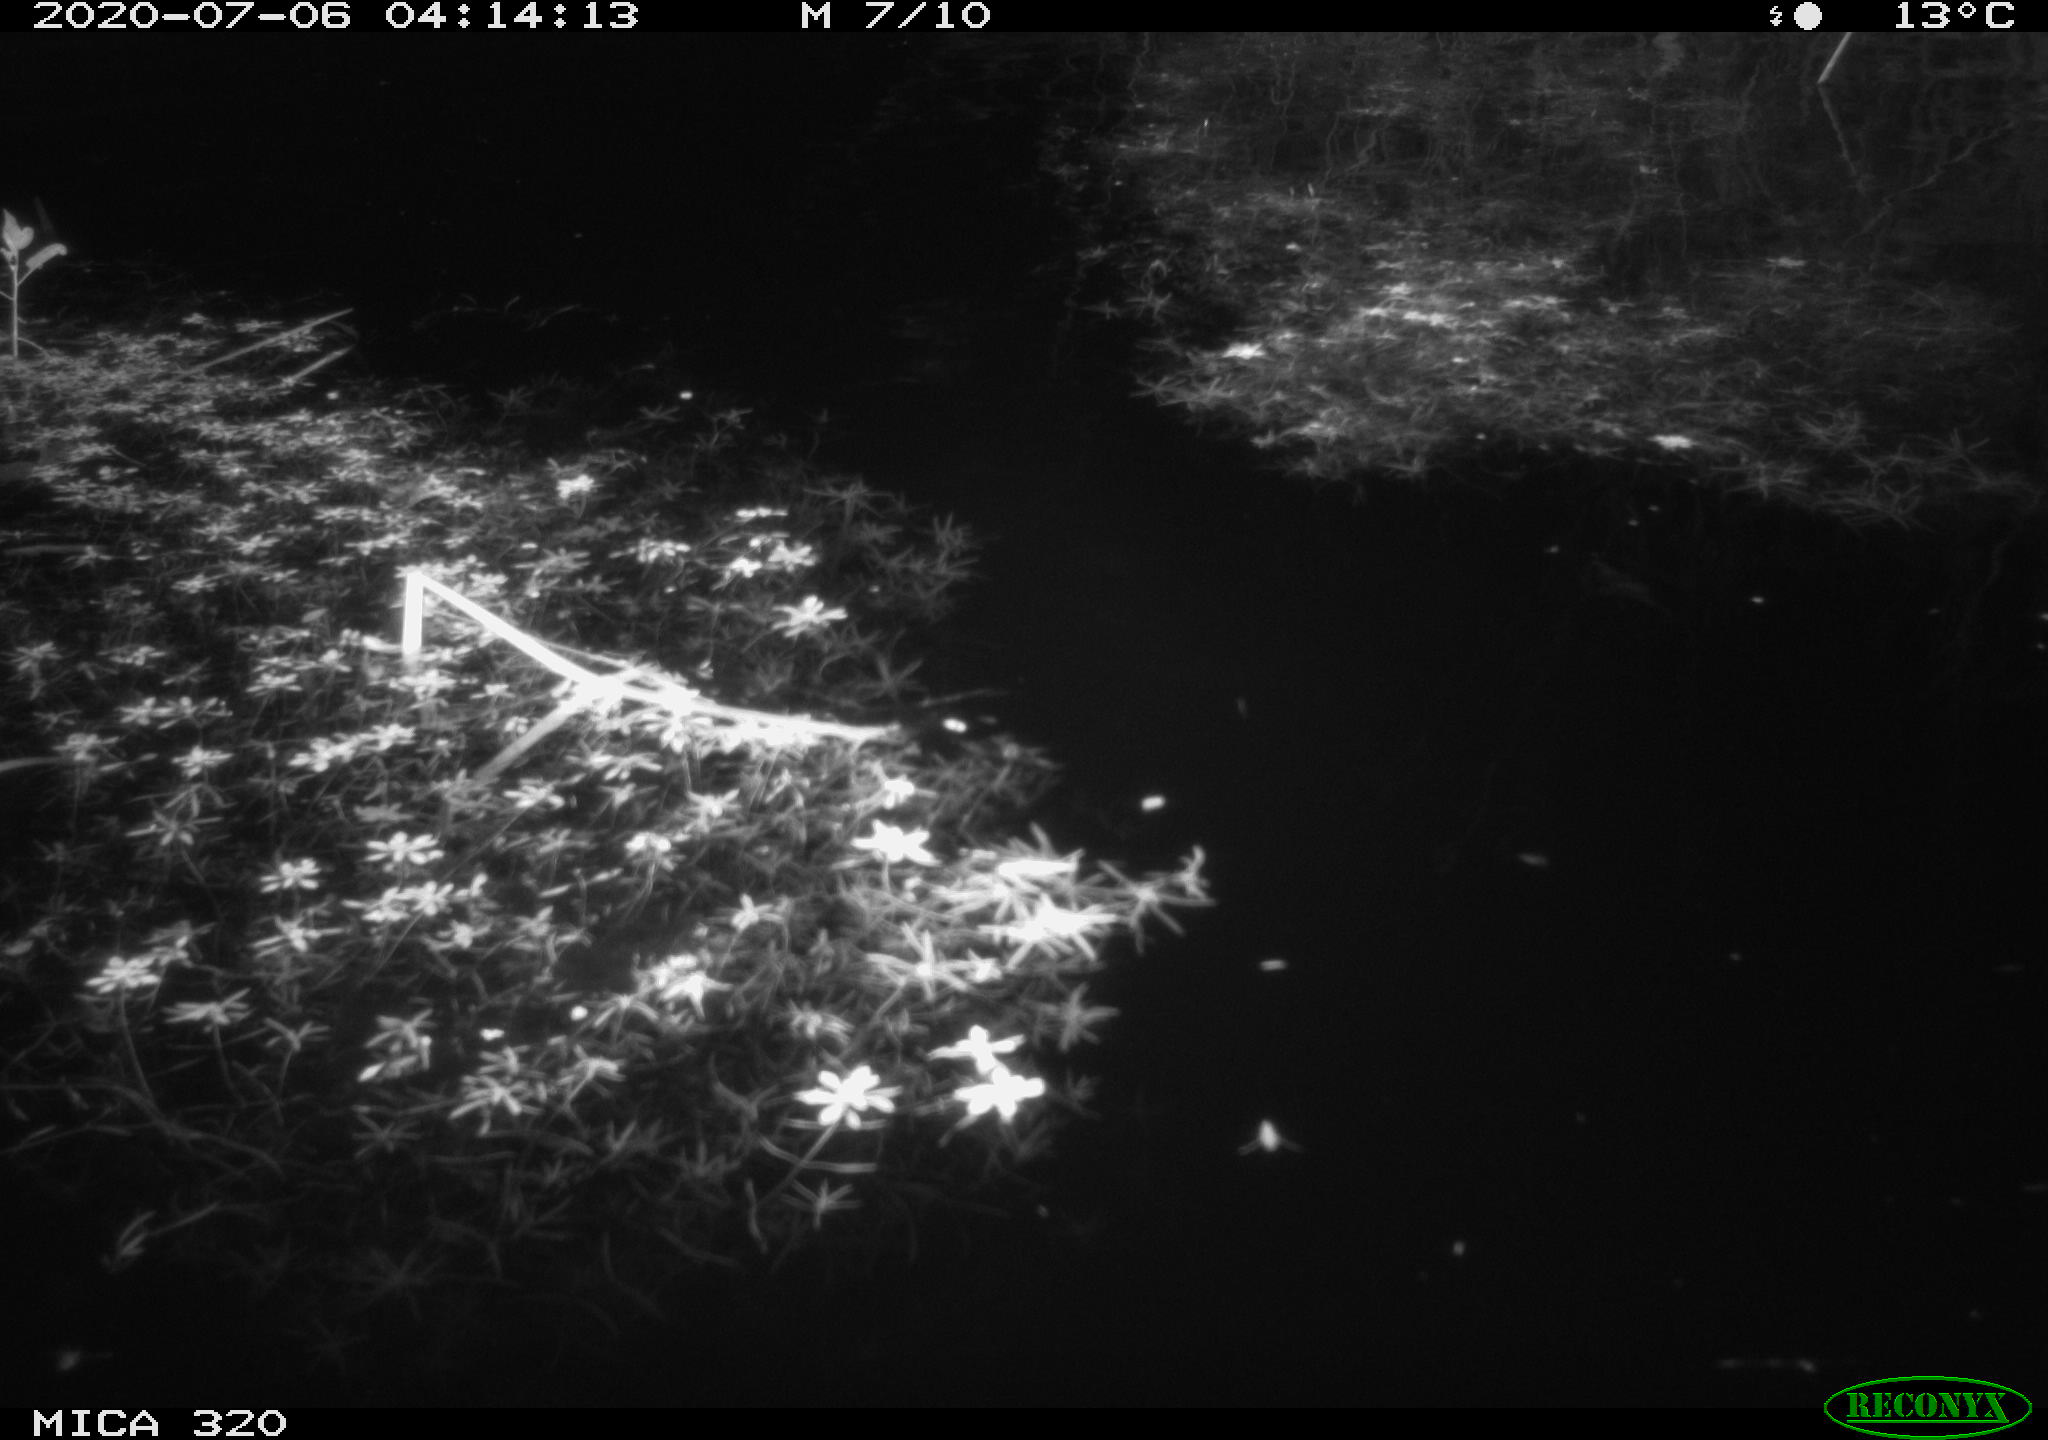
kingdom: Animalia
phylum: Chordata
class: Aves
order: Anseriformes
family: Anatidae
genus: Anas
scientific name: Anas platyrhynchos
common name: Mallard
